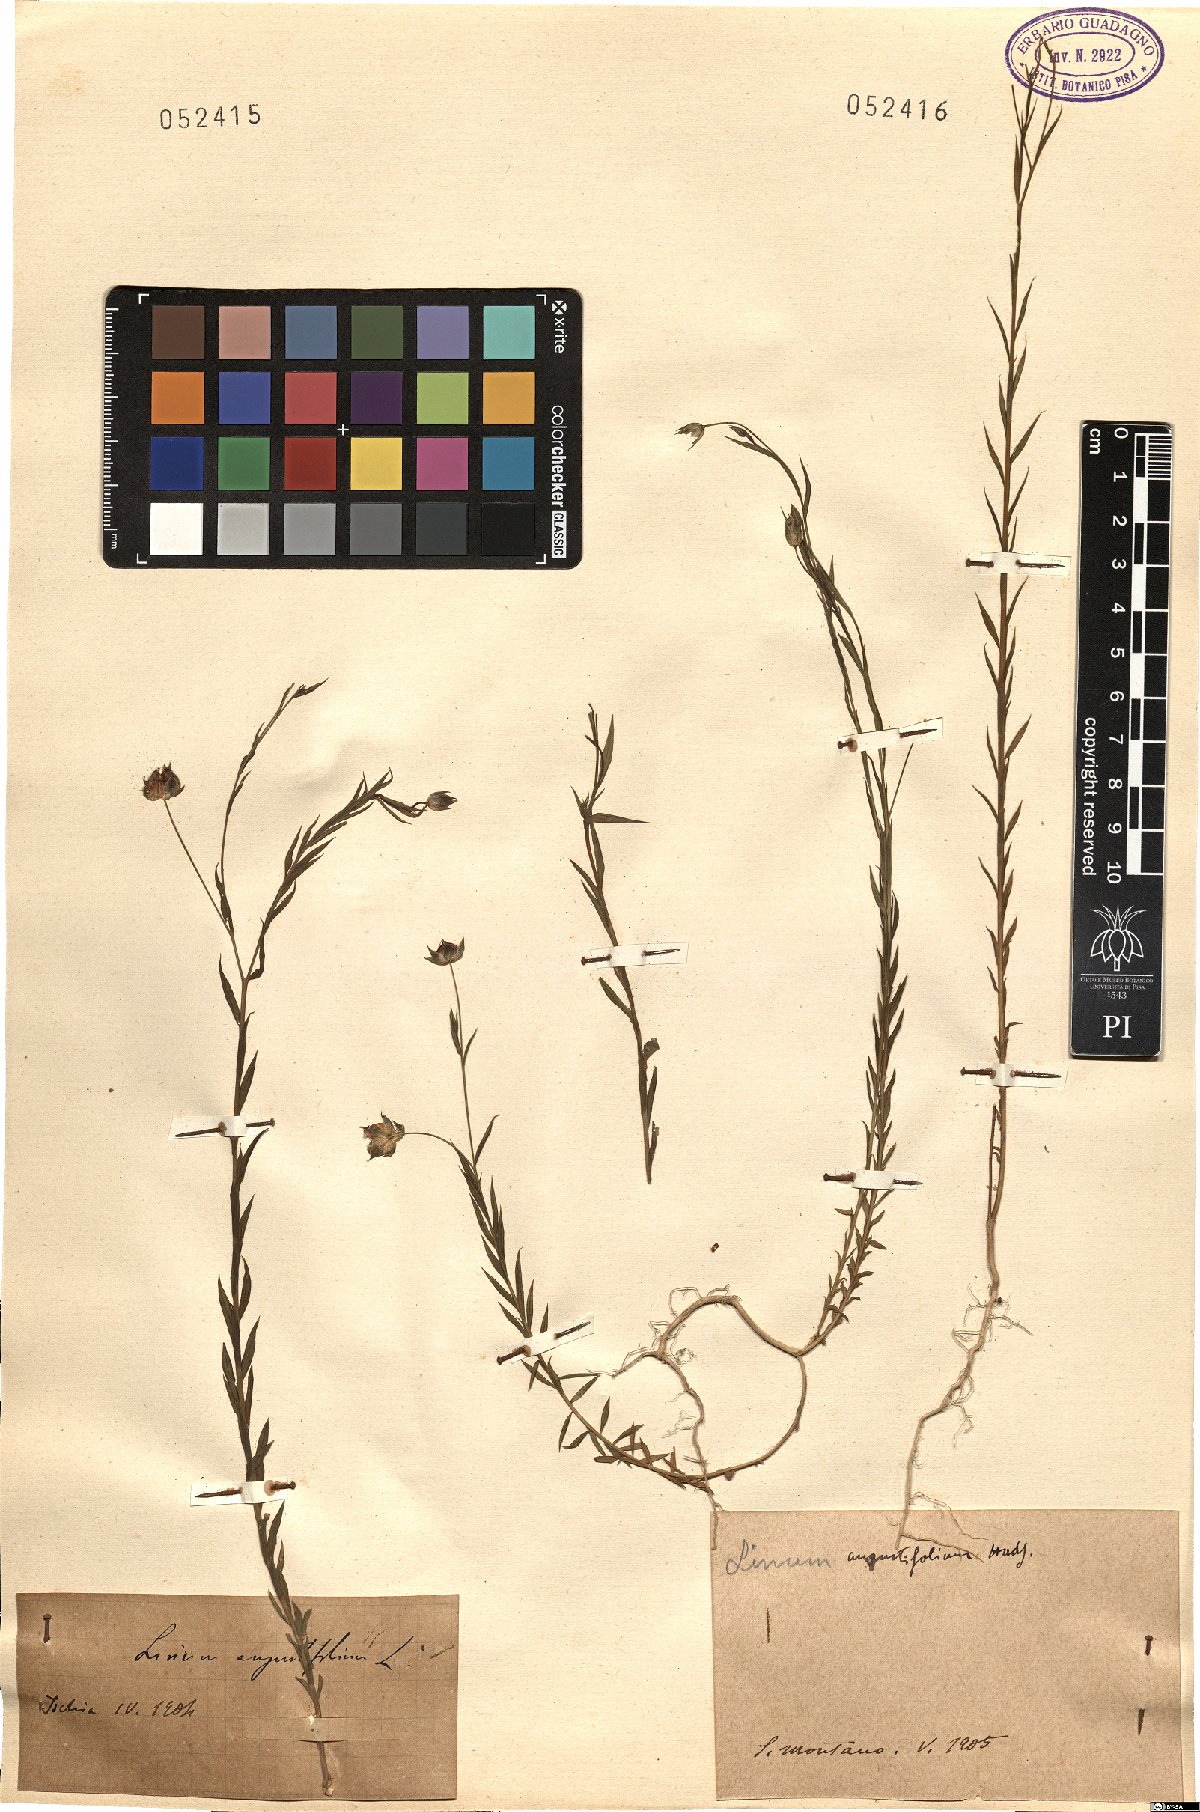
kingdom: Plantae
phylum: Tracheophyta
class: Magnoliopsida
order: Malpighiales
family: Linaceae
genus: Linum
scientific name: Linum bienne
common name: Pale flax
